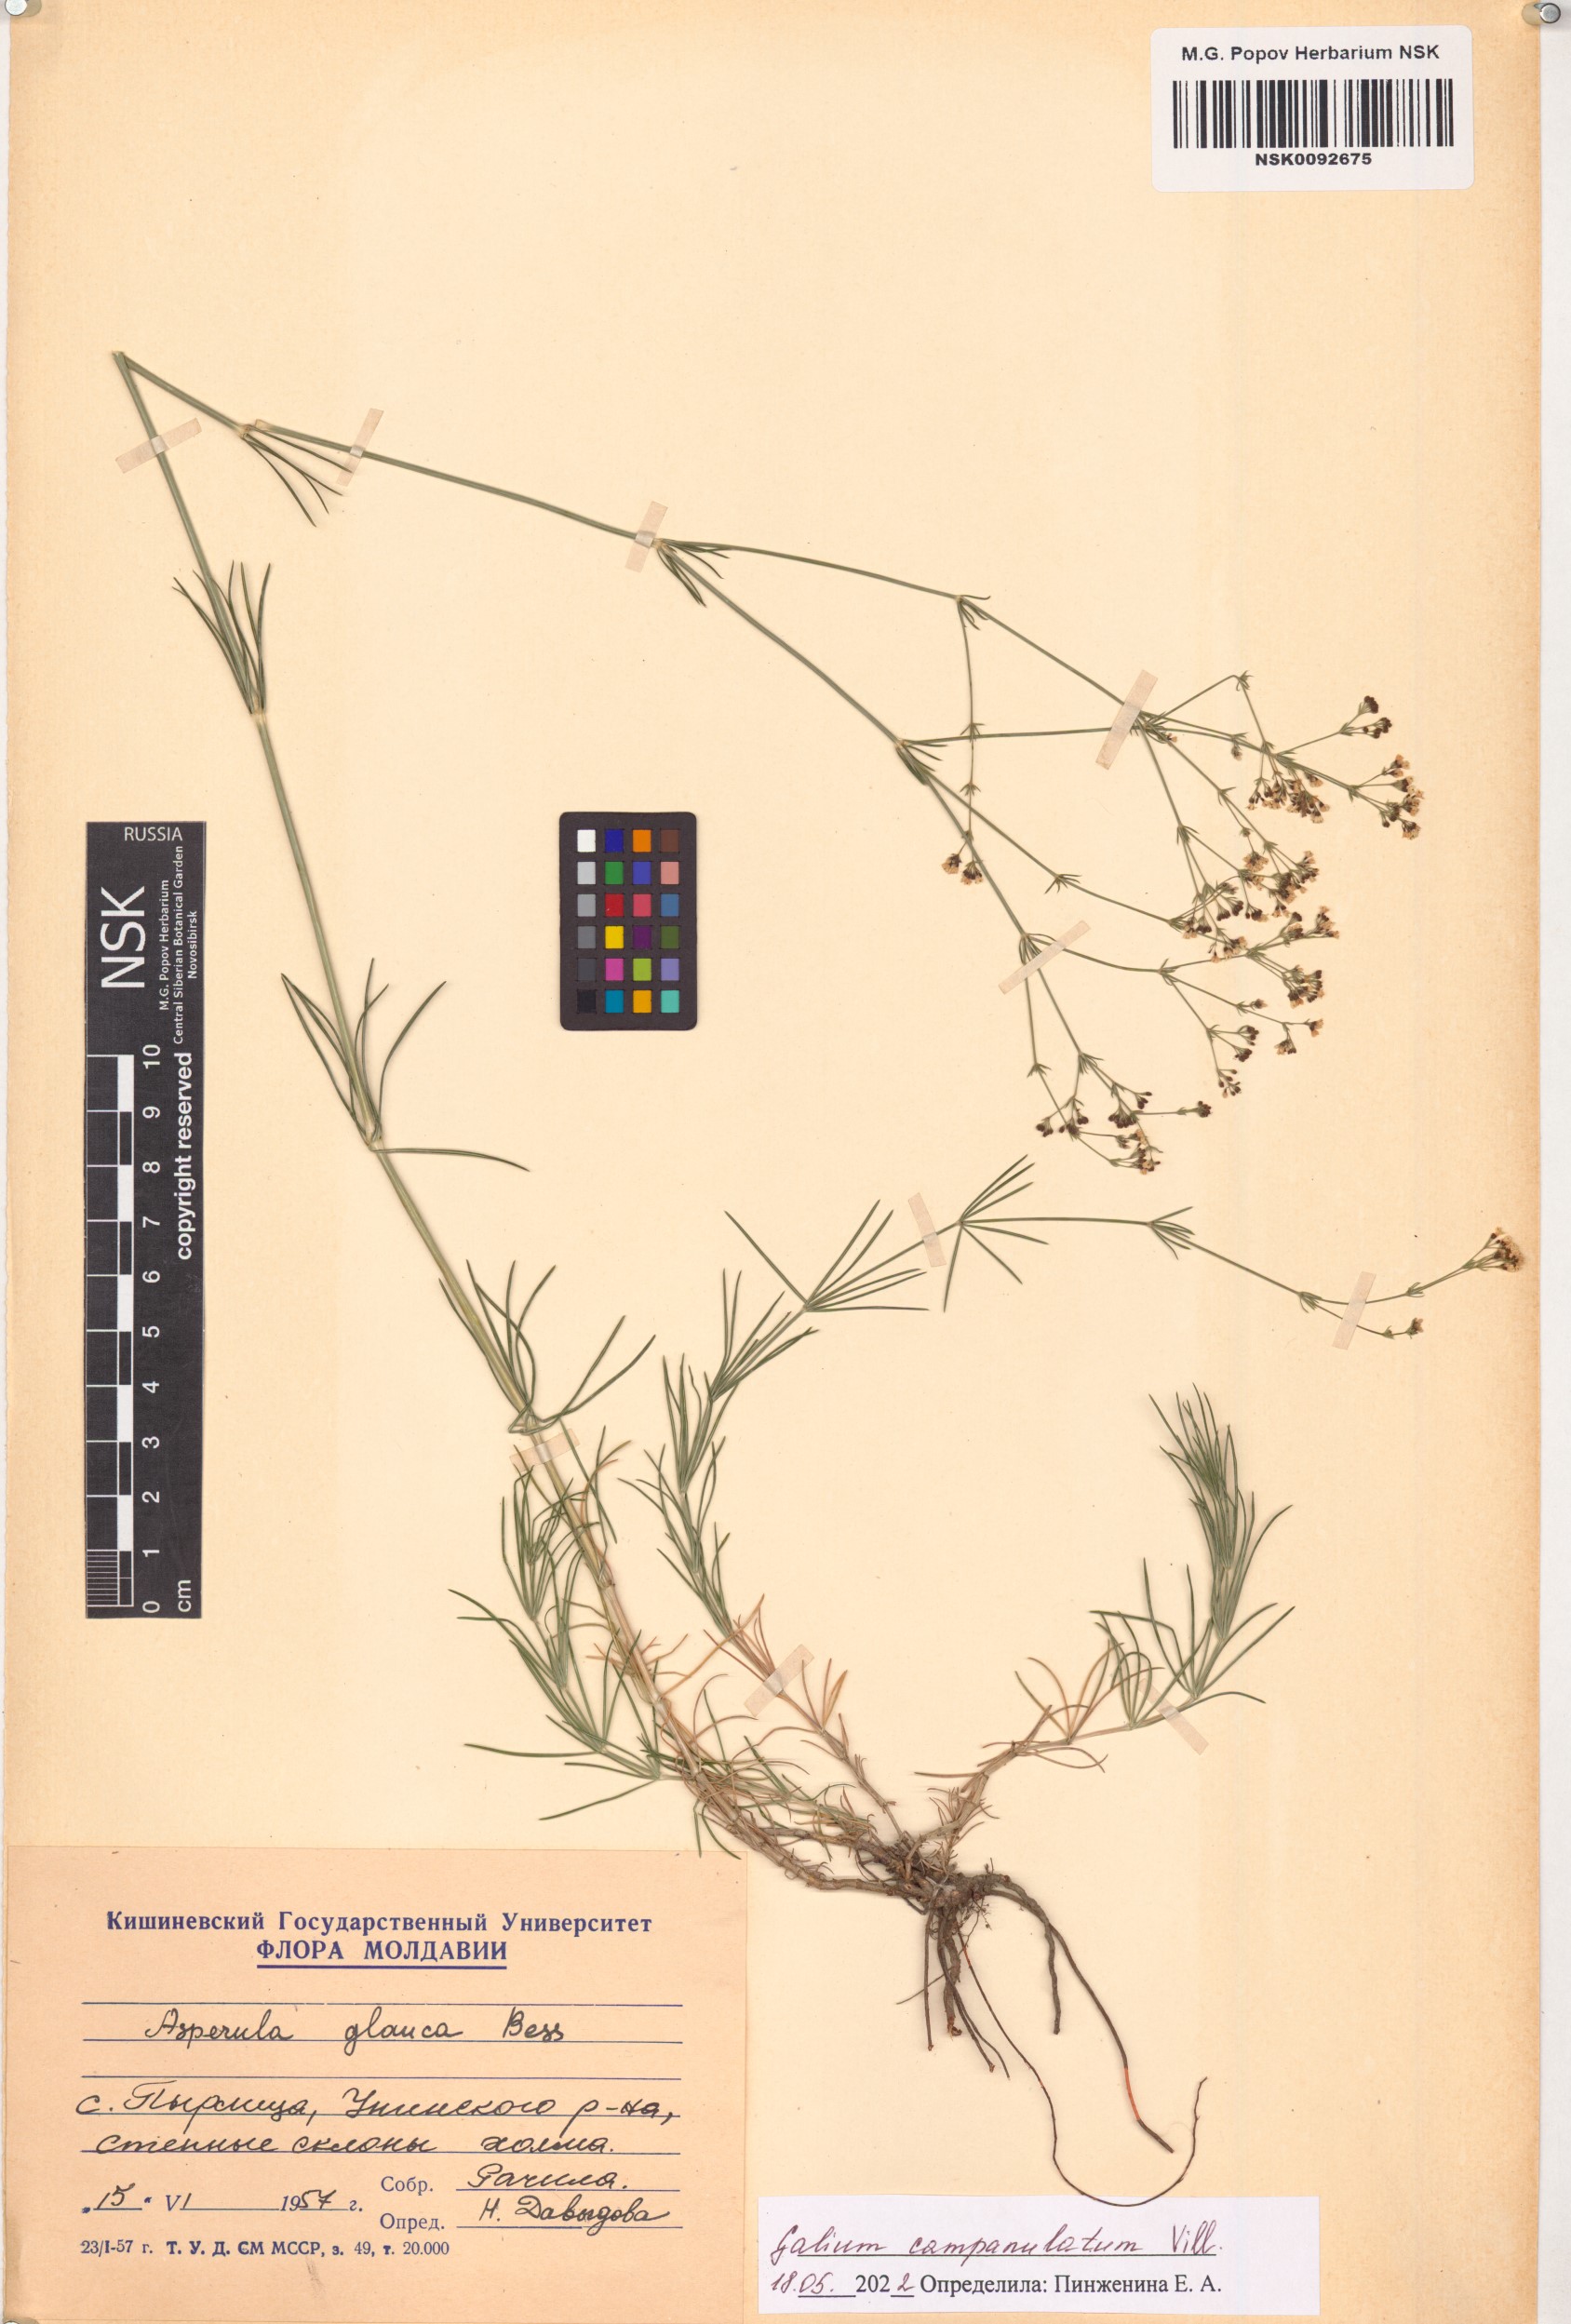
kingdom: Plantae
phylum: Tracheophyta
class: Magnoliopsida
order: Gentianales
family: Rubiaceae
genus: Galium
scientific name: Galium glaucum
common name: Waxy bedstraw
